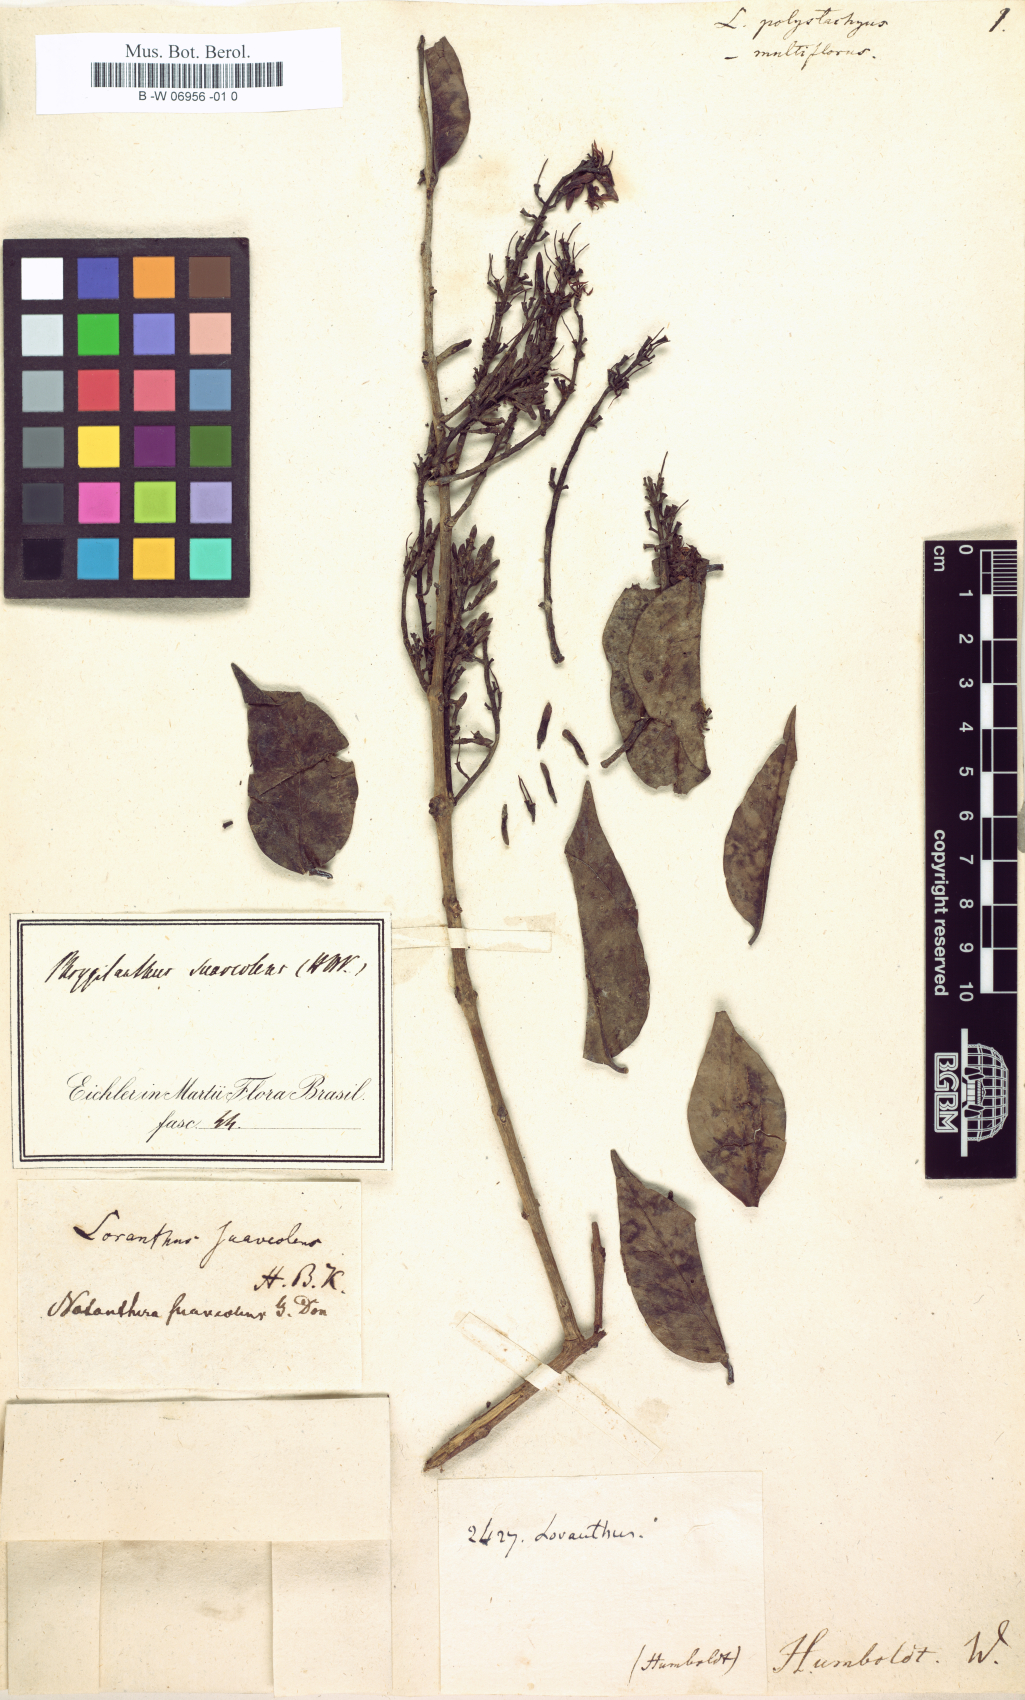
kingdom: Plantae
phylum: Tracheophyta
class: Magnoliopsida
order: Santalales
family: Loranthaceae
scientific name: Loranthaceae
